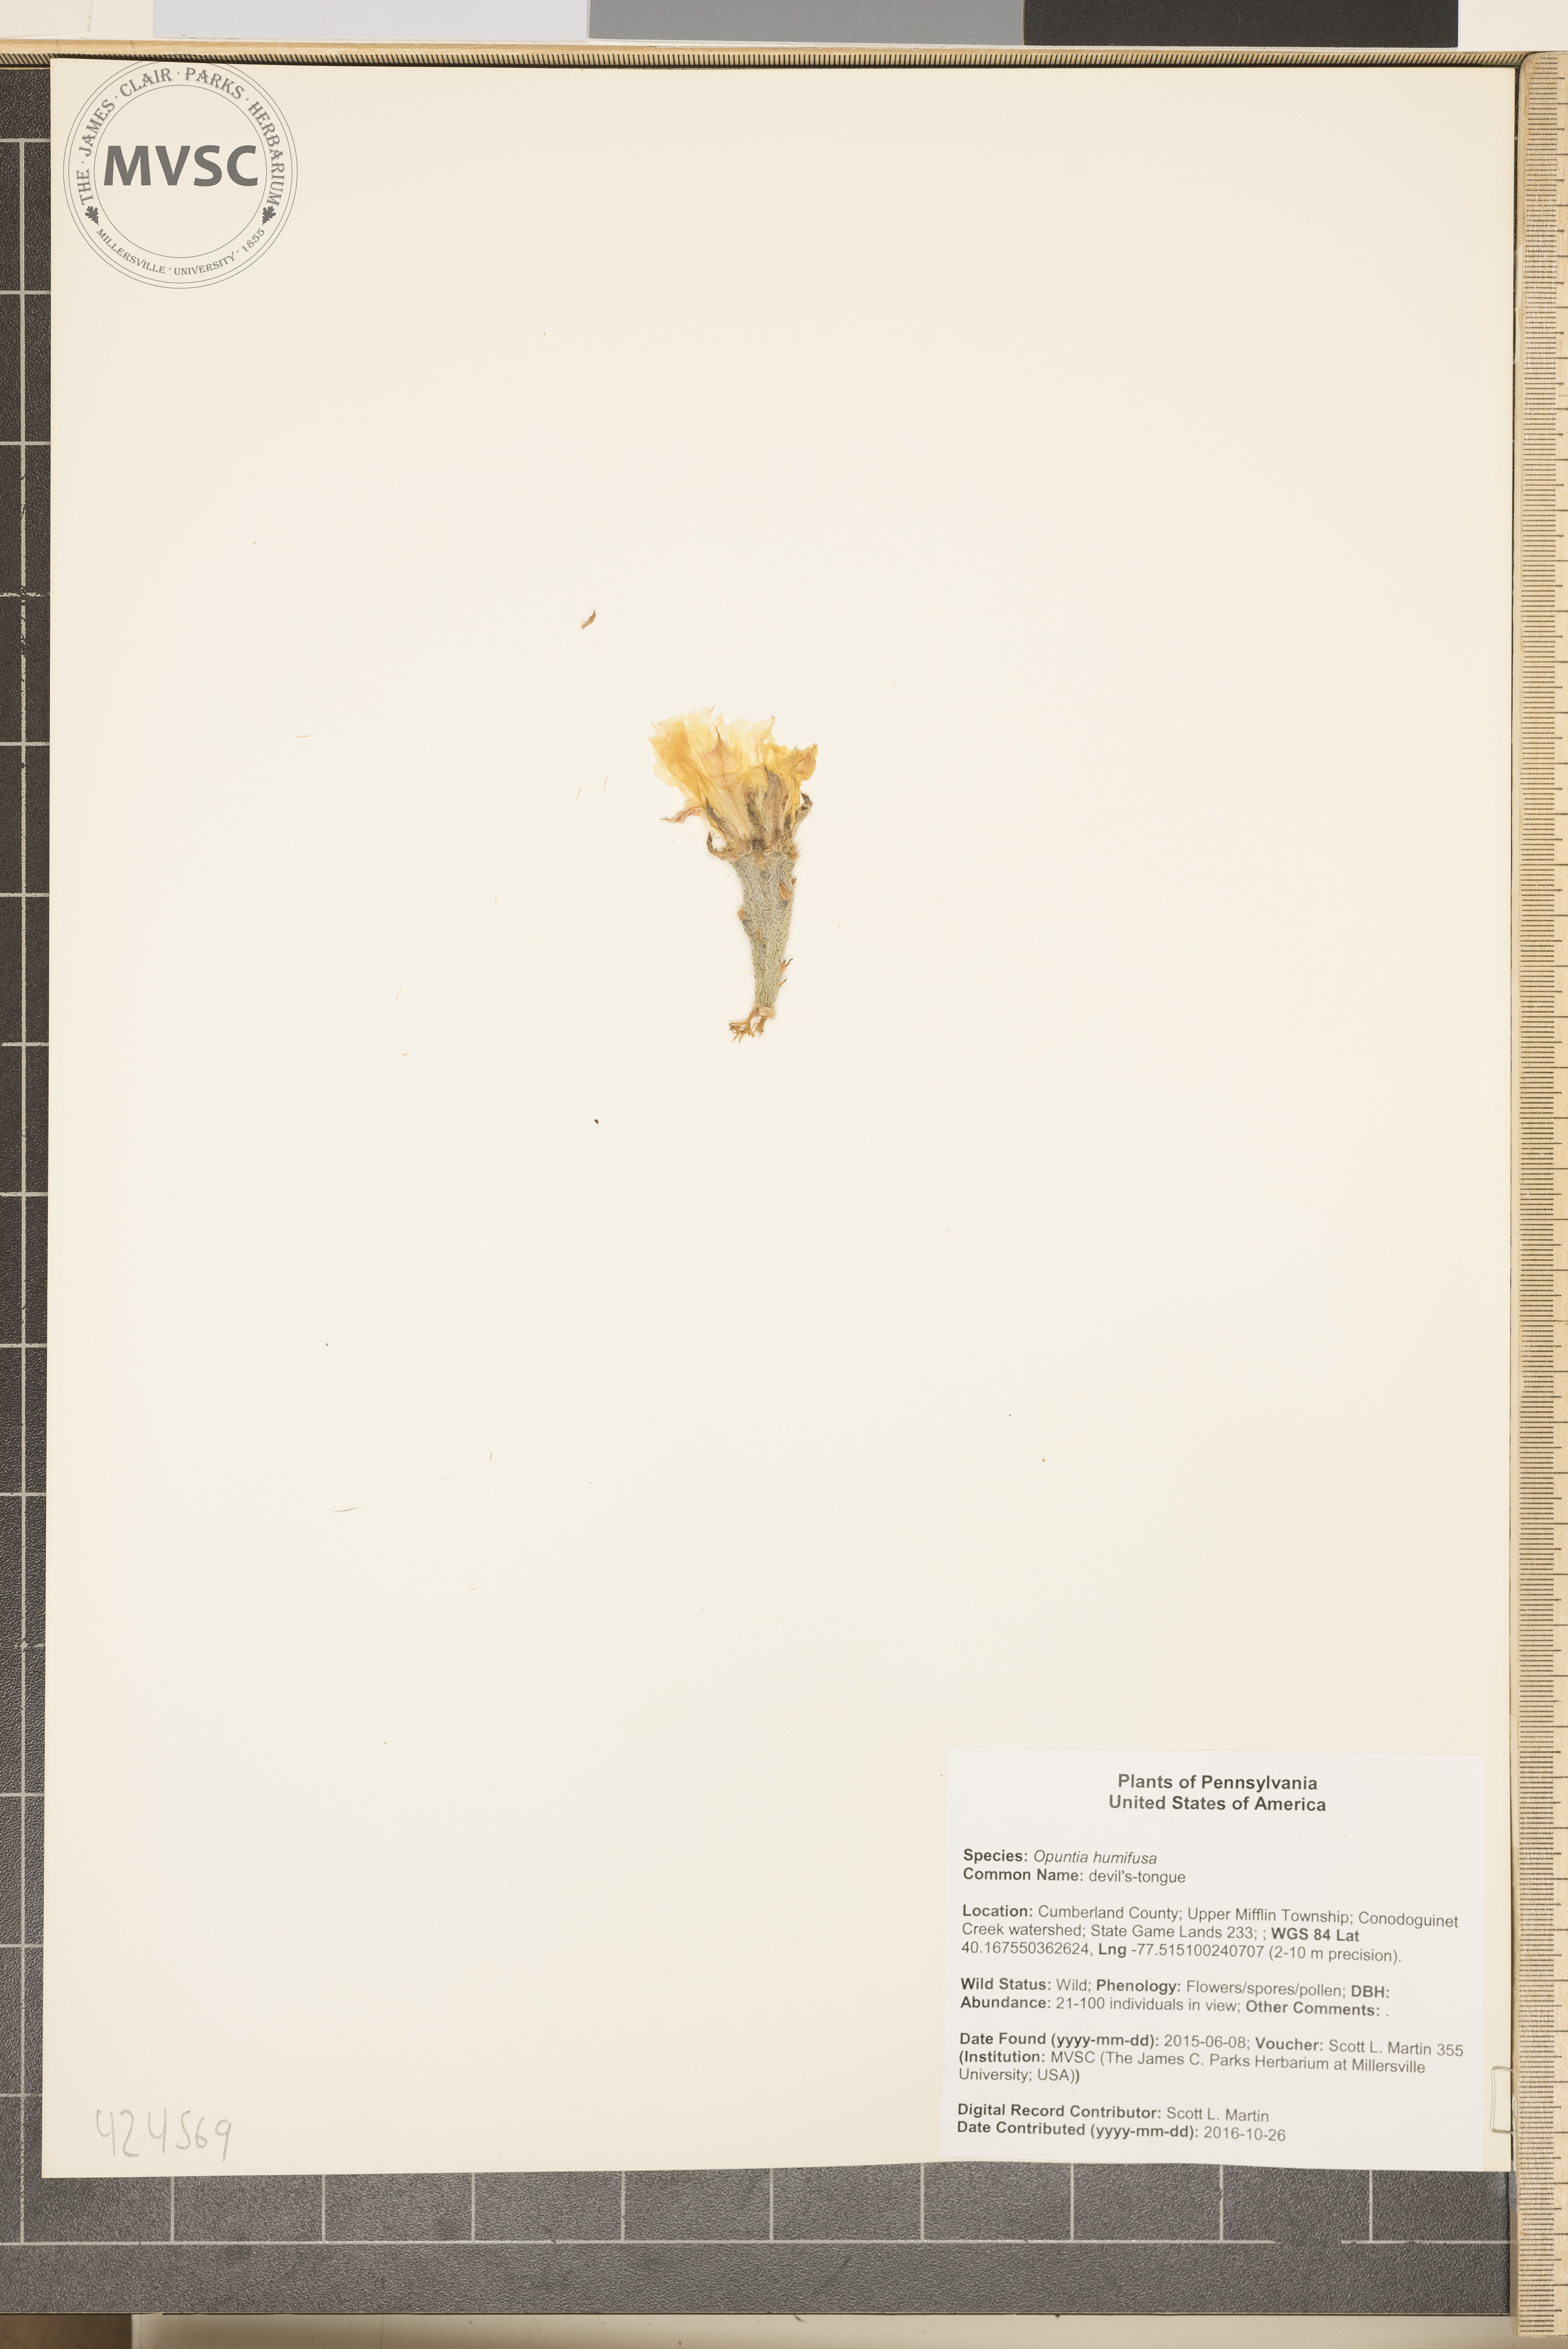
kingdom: Plantae
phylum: Tracheophyta
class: Magnoliopsida
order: Caryophyllales
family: Cactaceae
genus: Opuntia
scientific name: Opuntia humifusa
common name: devil's-tongue
